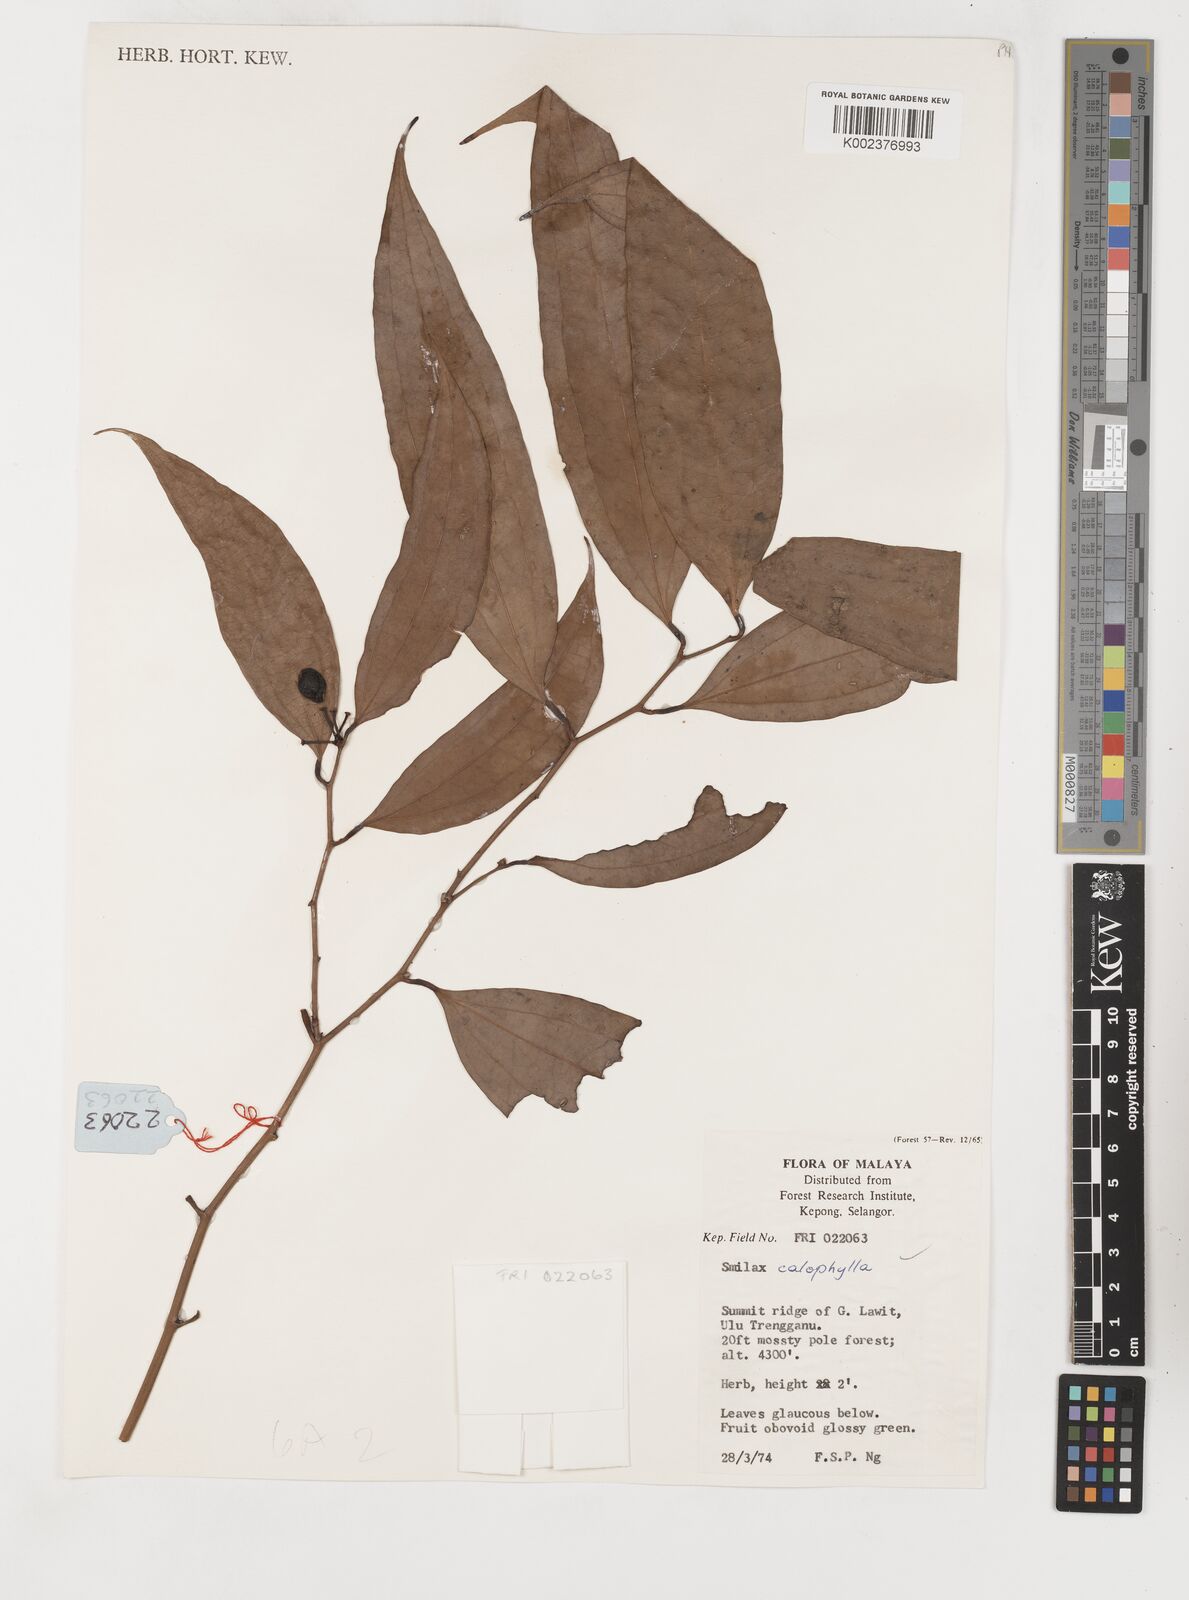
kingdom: Plantae
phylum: Tracheophyta
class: Liliopsida
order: Liliales
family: Smilacaceae
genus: Smilax
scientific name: Smilax calophylla
